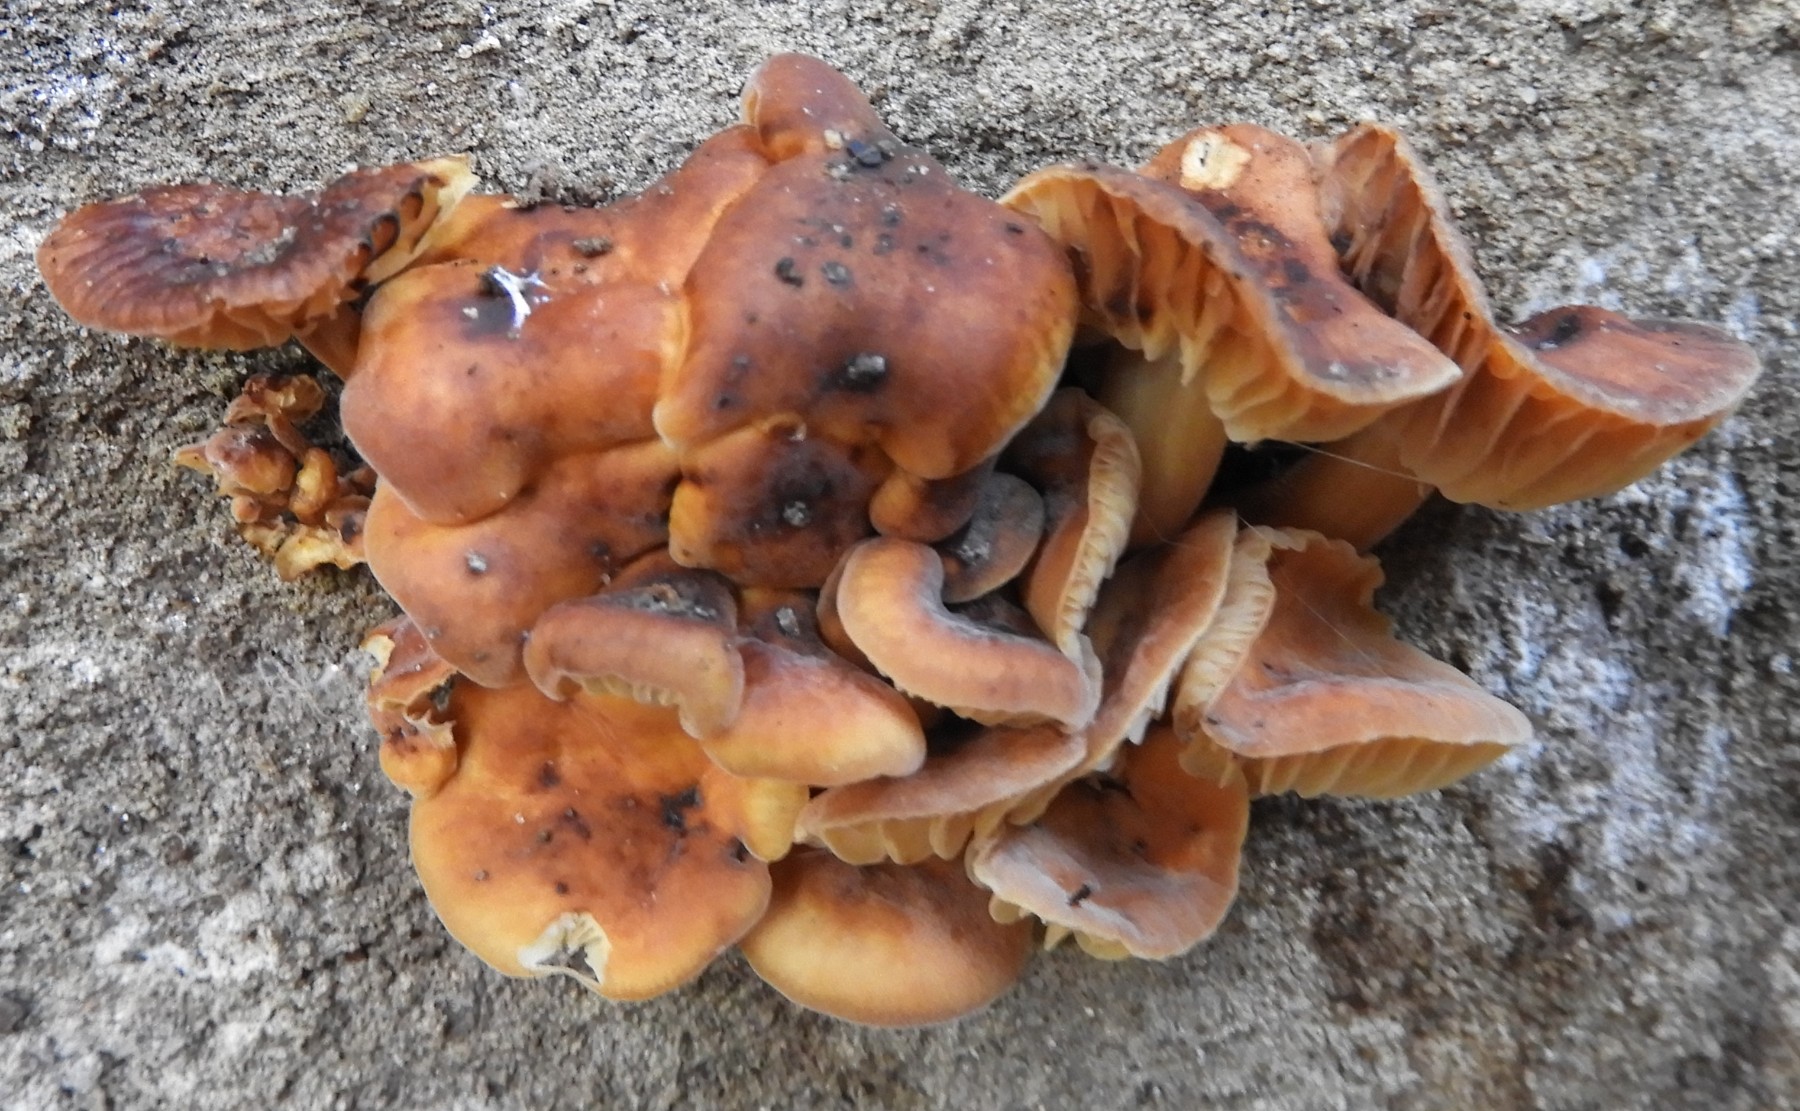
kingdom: Fungi
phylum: Basidiomycota
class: Agaricomycetes
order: Agaricales
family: Physalacriaceae
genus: Flammulina
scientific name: Flammulina
